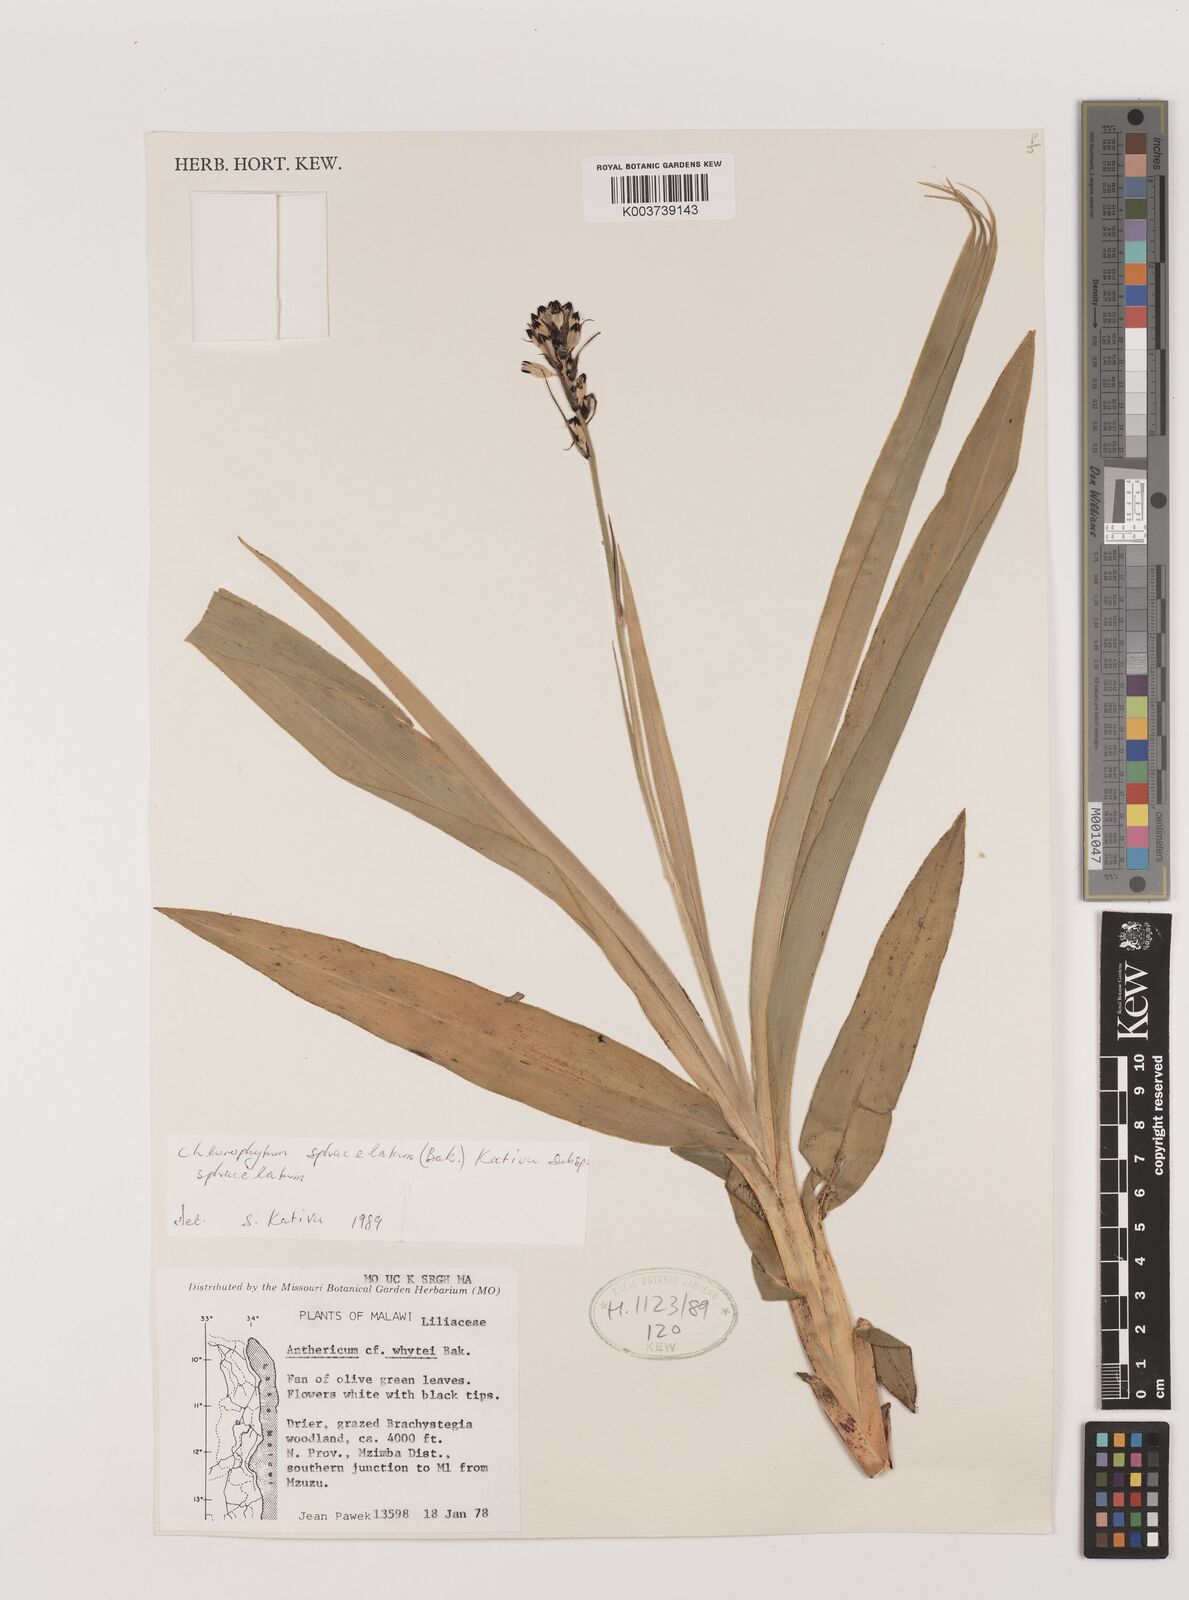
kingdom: Plantae
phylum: Tracheophyta
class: Liliopsida
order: Asparagales
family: Asparagaceae
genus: Chlorophytum
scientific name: Chlorophytum sphacelatum
